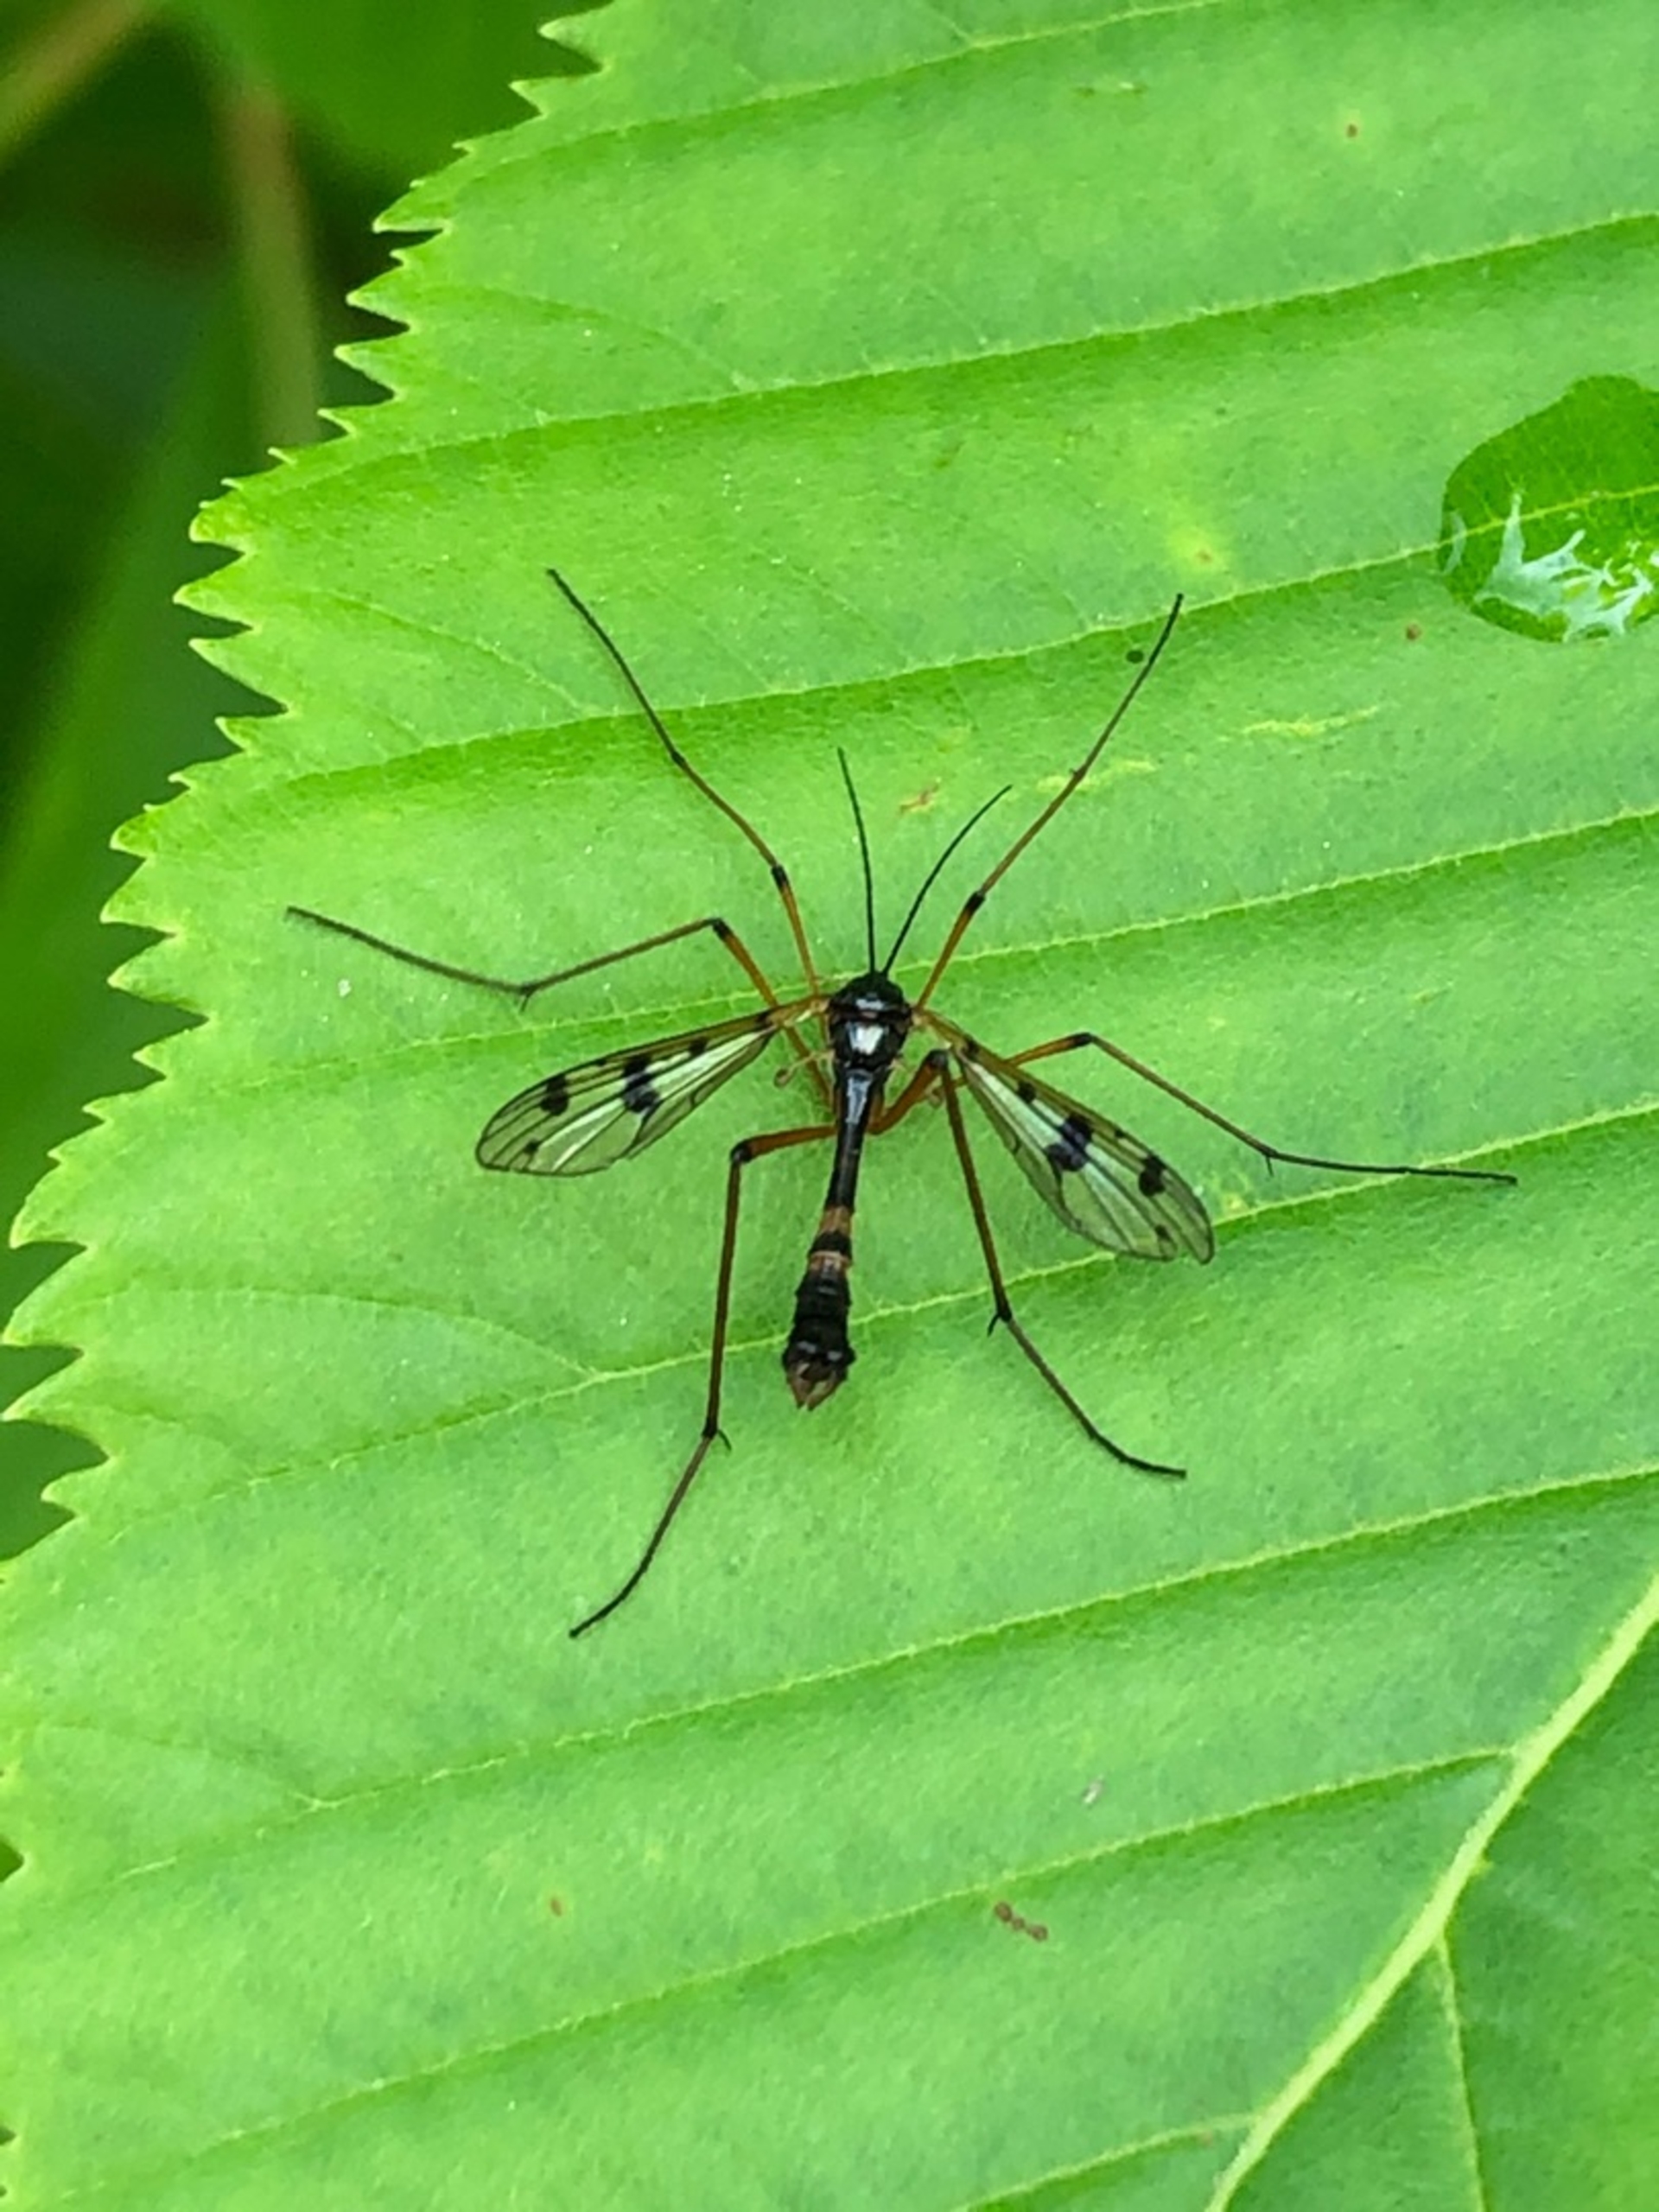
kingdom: Animalia
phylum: Arthropoda
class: Insecta
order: Diptera
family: Ptychopteridae
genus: Ptychoptera
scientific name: Ptychoptera contaminata
